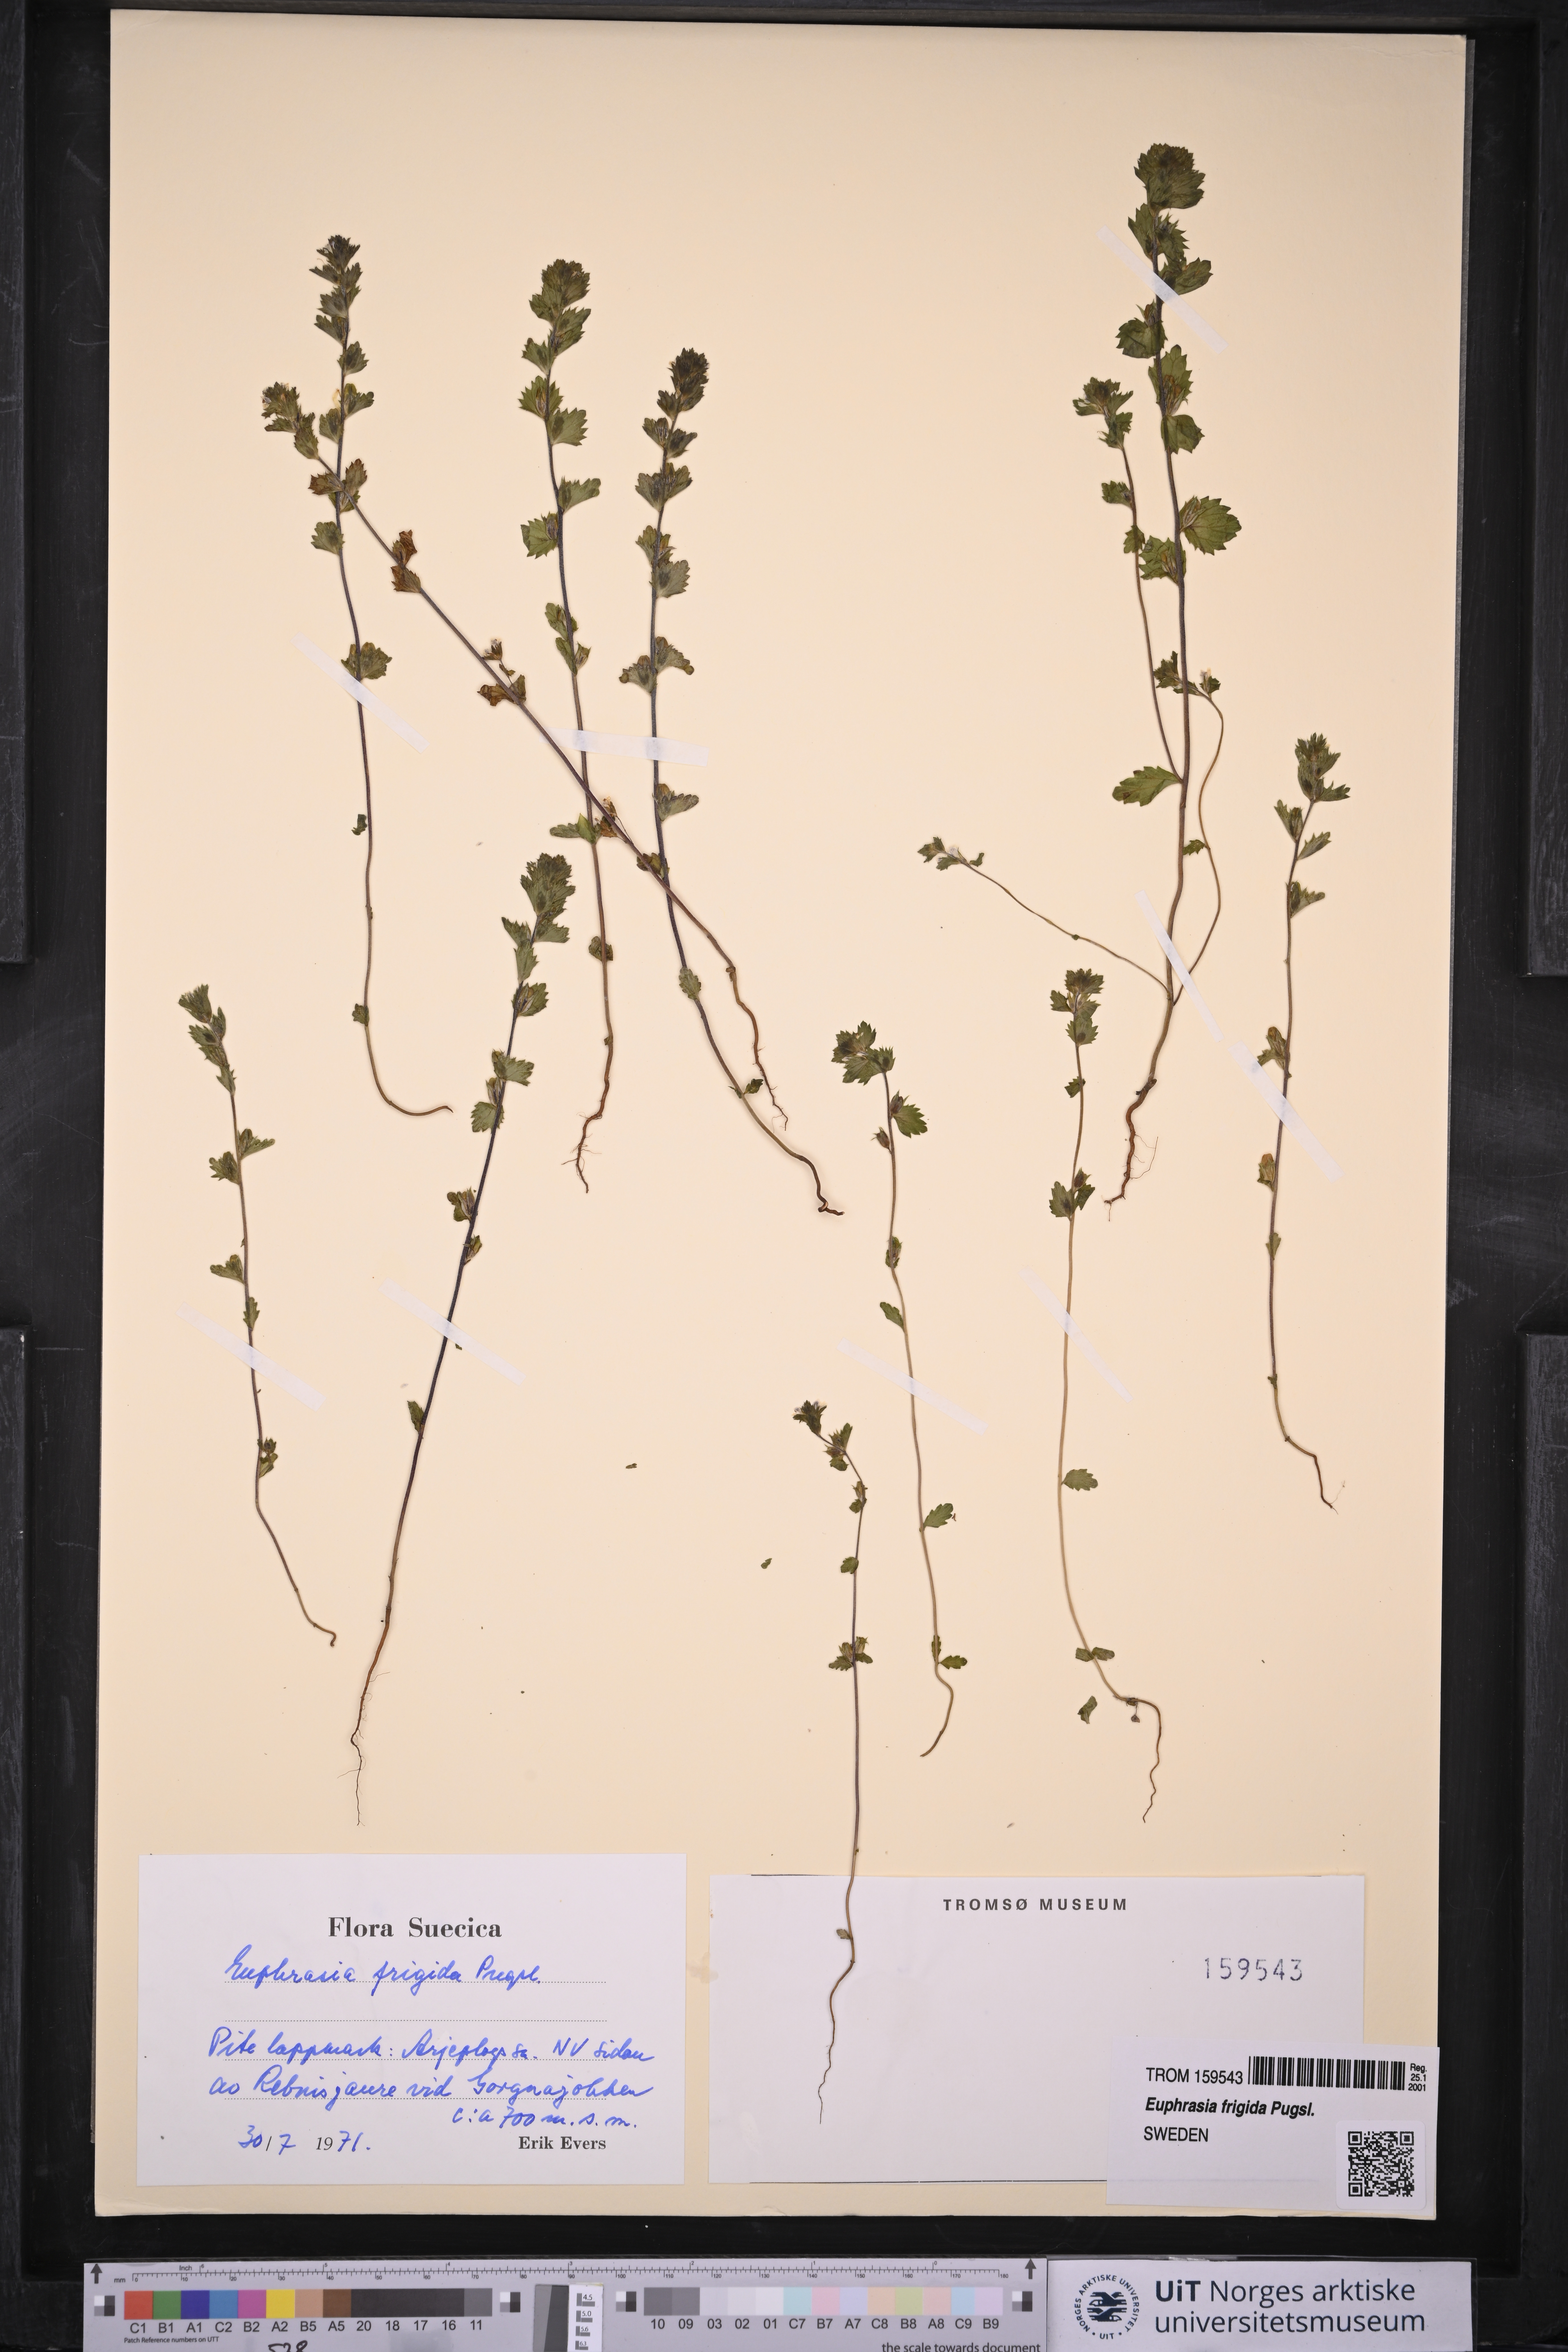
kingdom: Plantae
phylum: Tracheophyta
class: Magnoliopsida
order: Lamiales
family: Orobanchaceae
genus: Euphrasia
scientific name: Euphrasia frigida
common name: An eyebright
